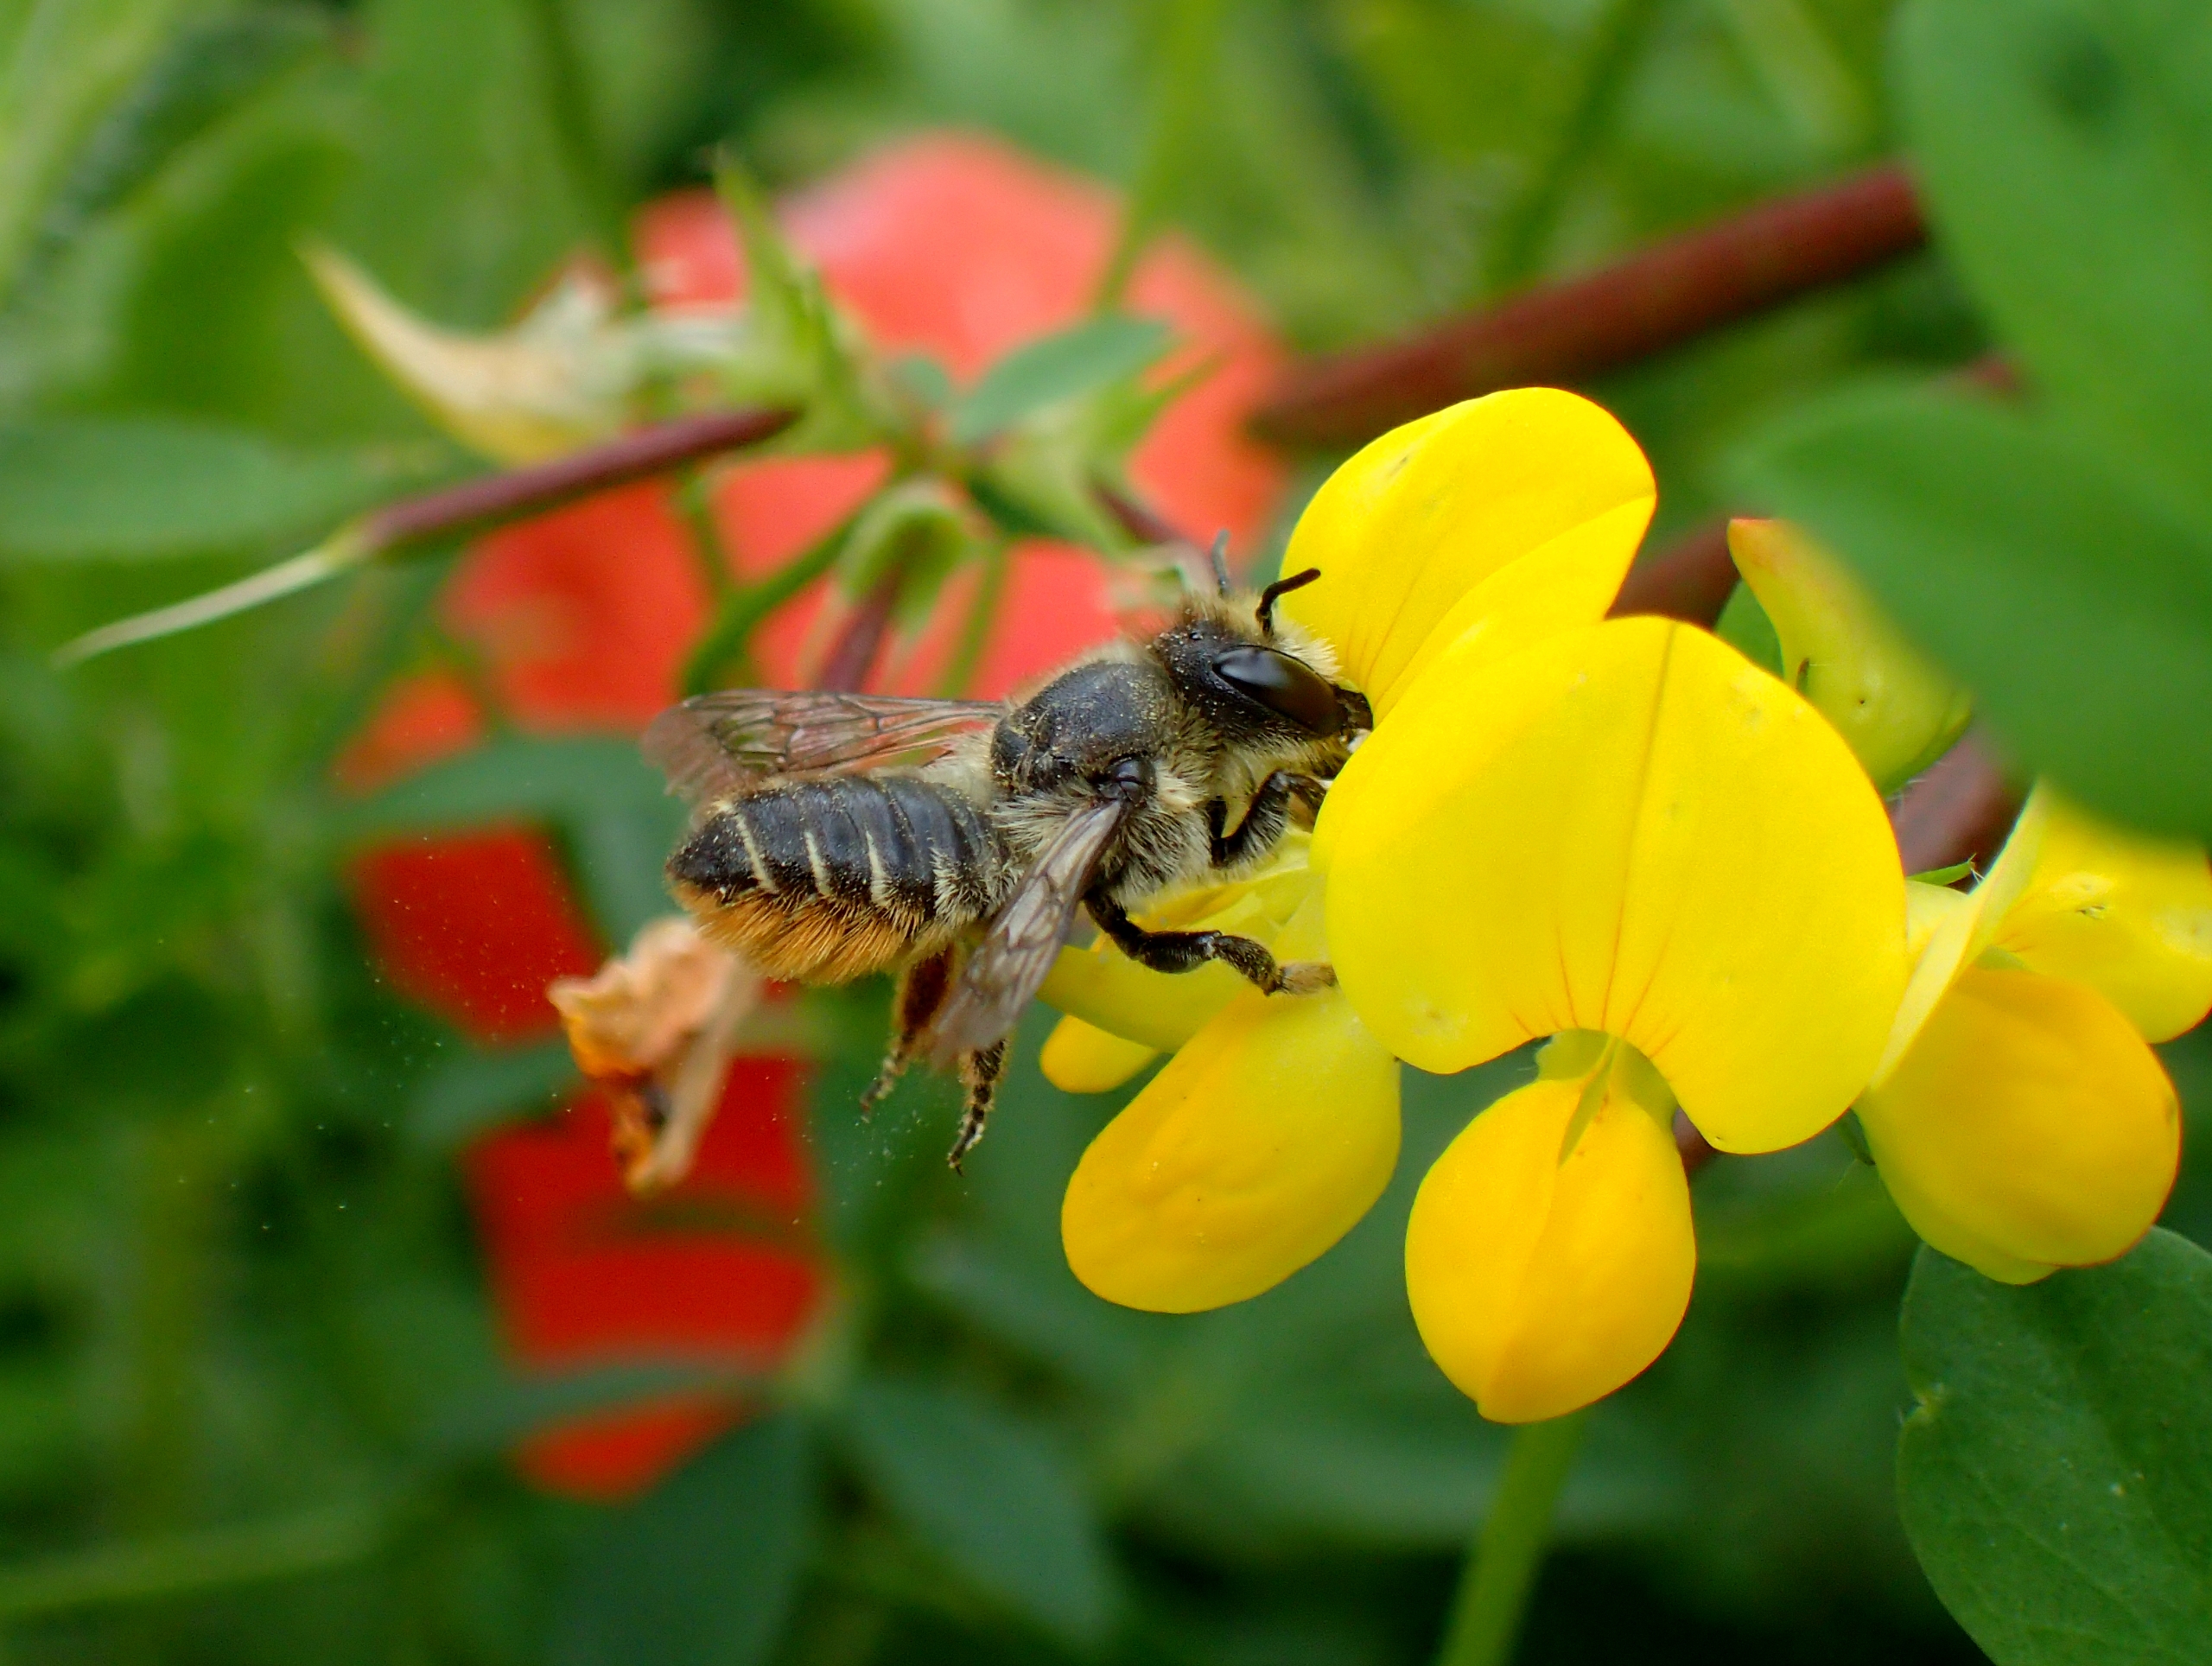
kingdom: Animalia
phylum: Arthropoda
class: Insecta
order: Hymenoptera
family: Megachilidae
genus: Megachile
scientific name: Megachile centuncularis
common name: Rosenbladskærerbi
